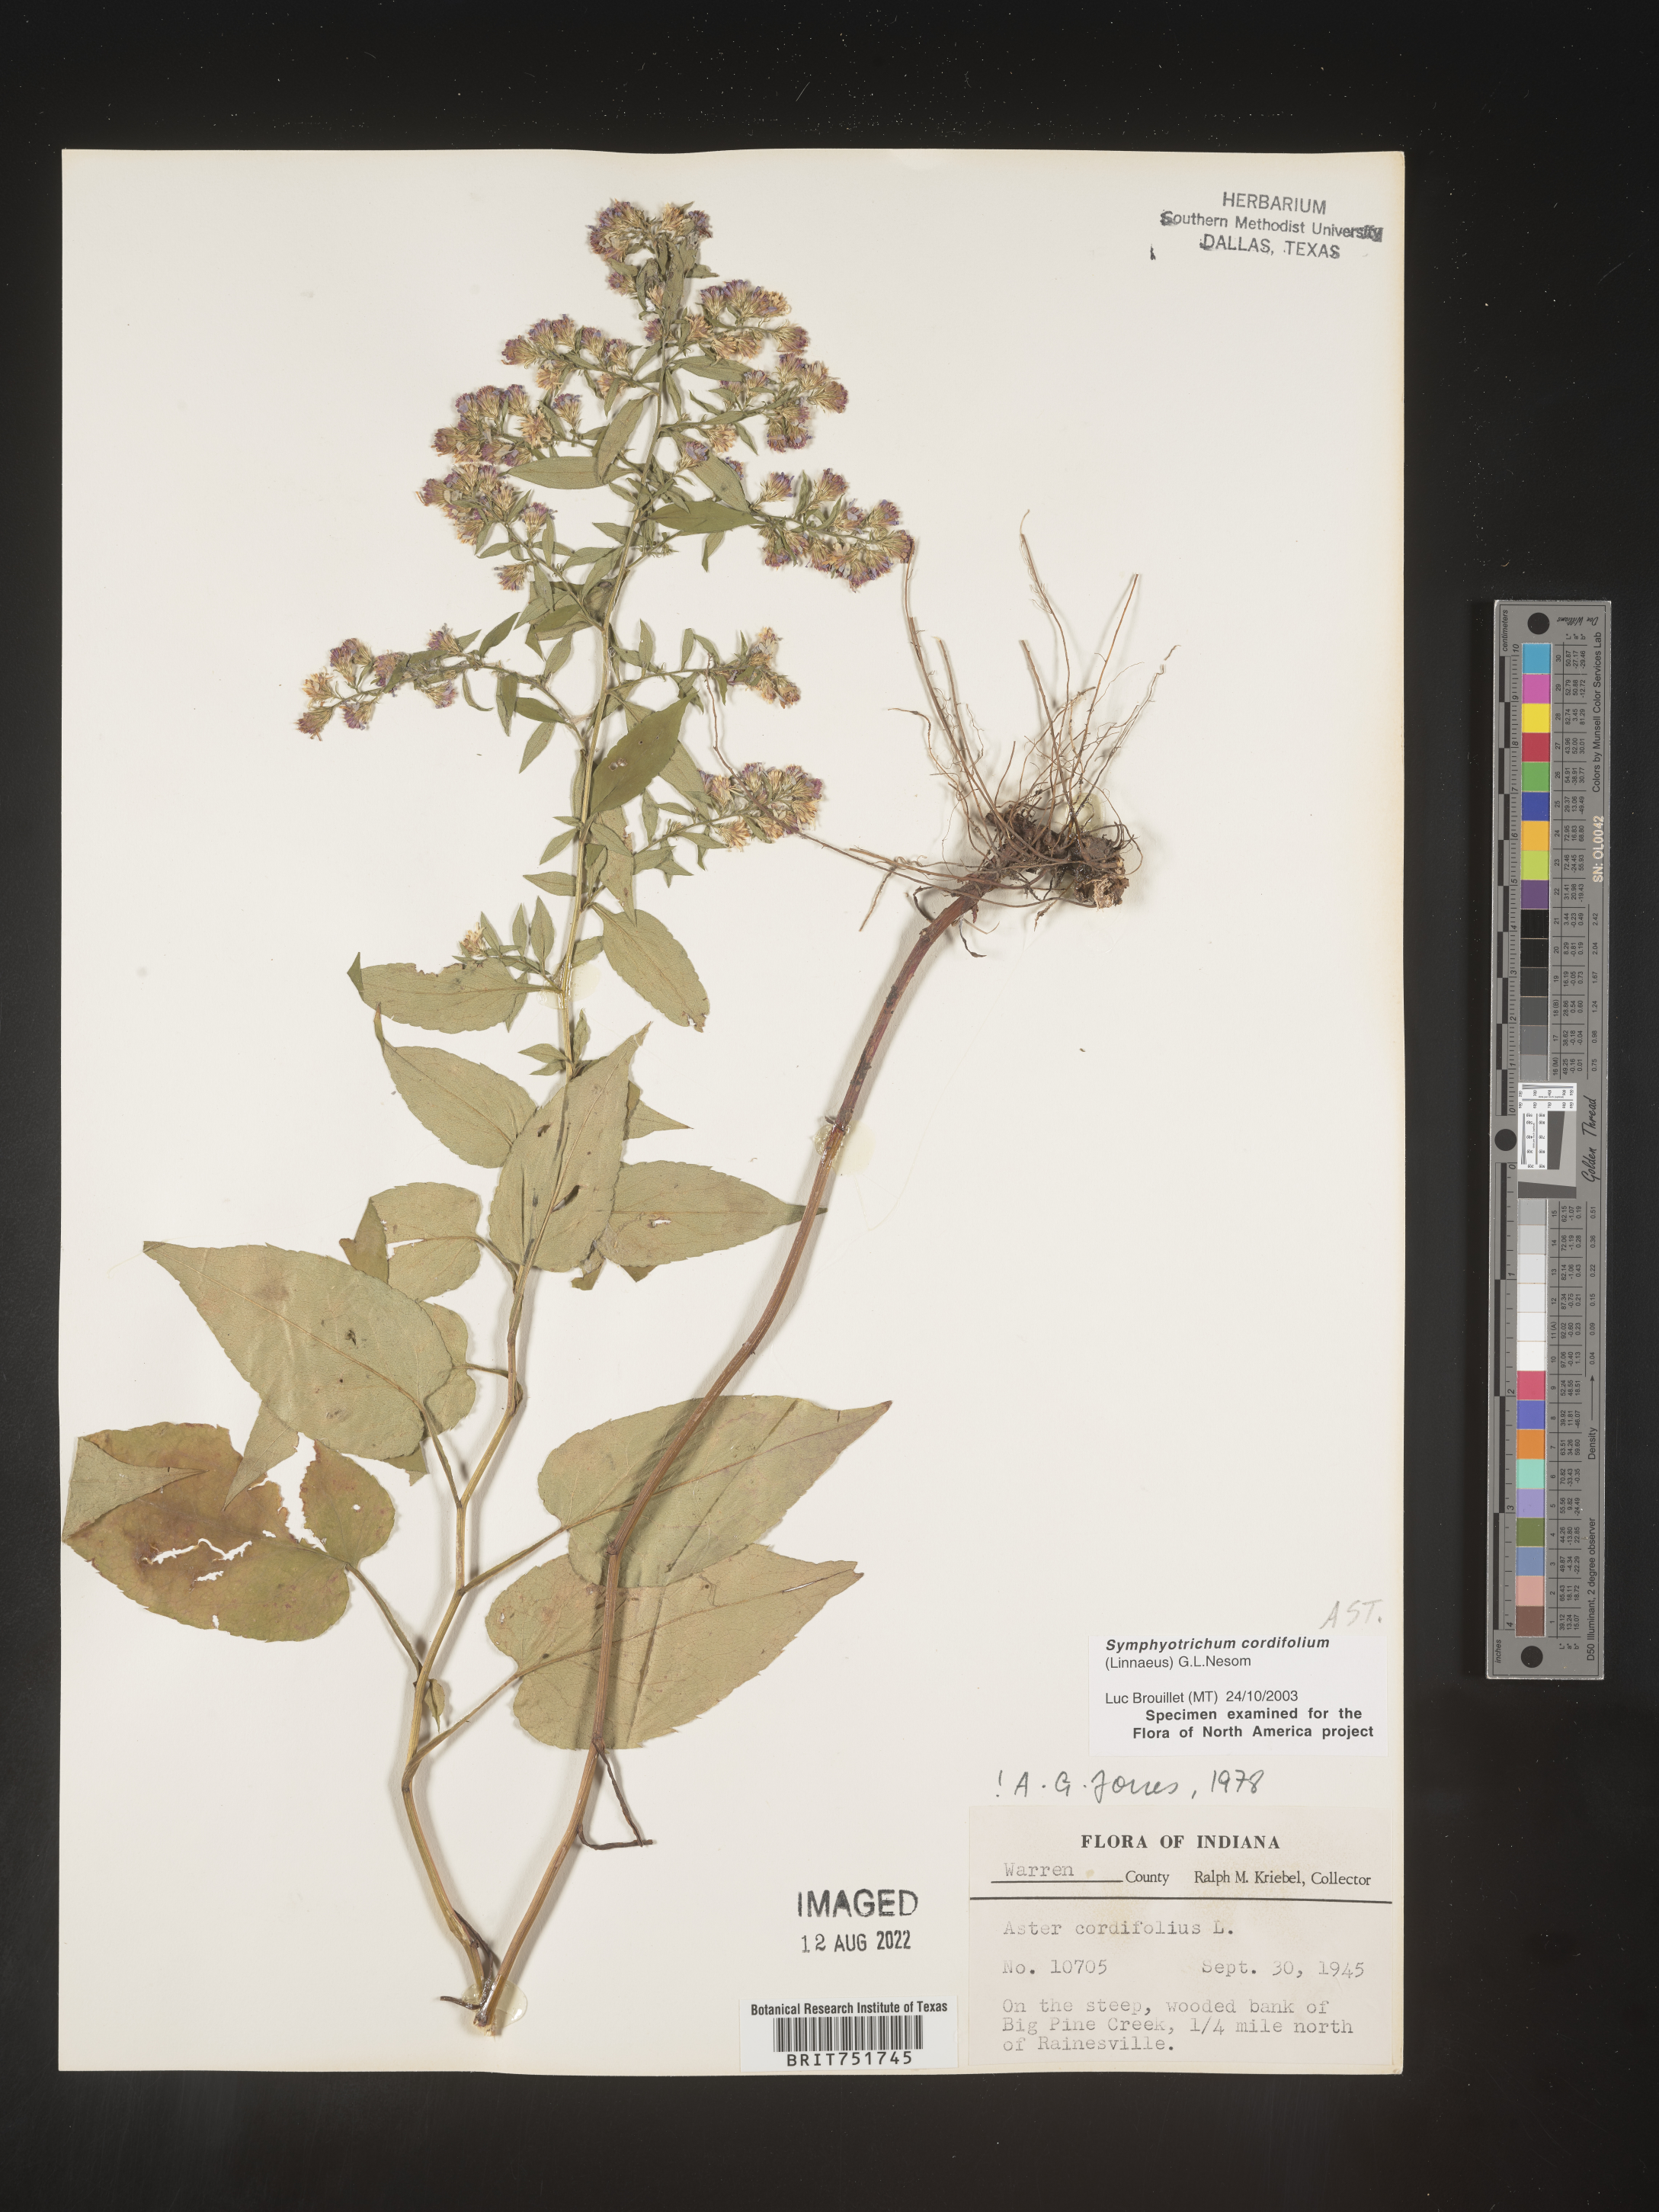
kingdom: Plantae
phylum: Tracheophyta
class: Magnoliopsida
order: Asterales
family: Asteraceae
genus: Symphyotrichum
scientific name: Symphyotrichum cordifolium
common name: Beeweed
